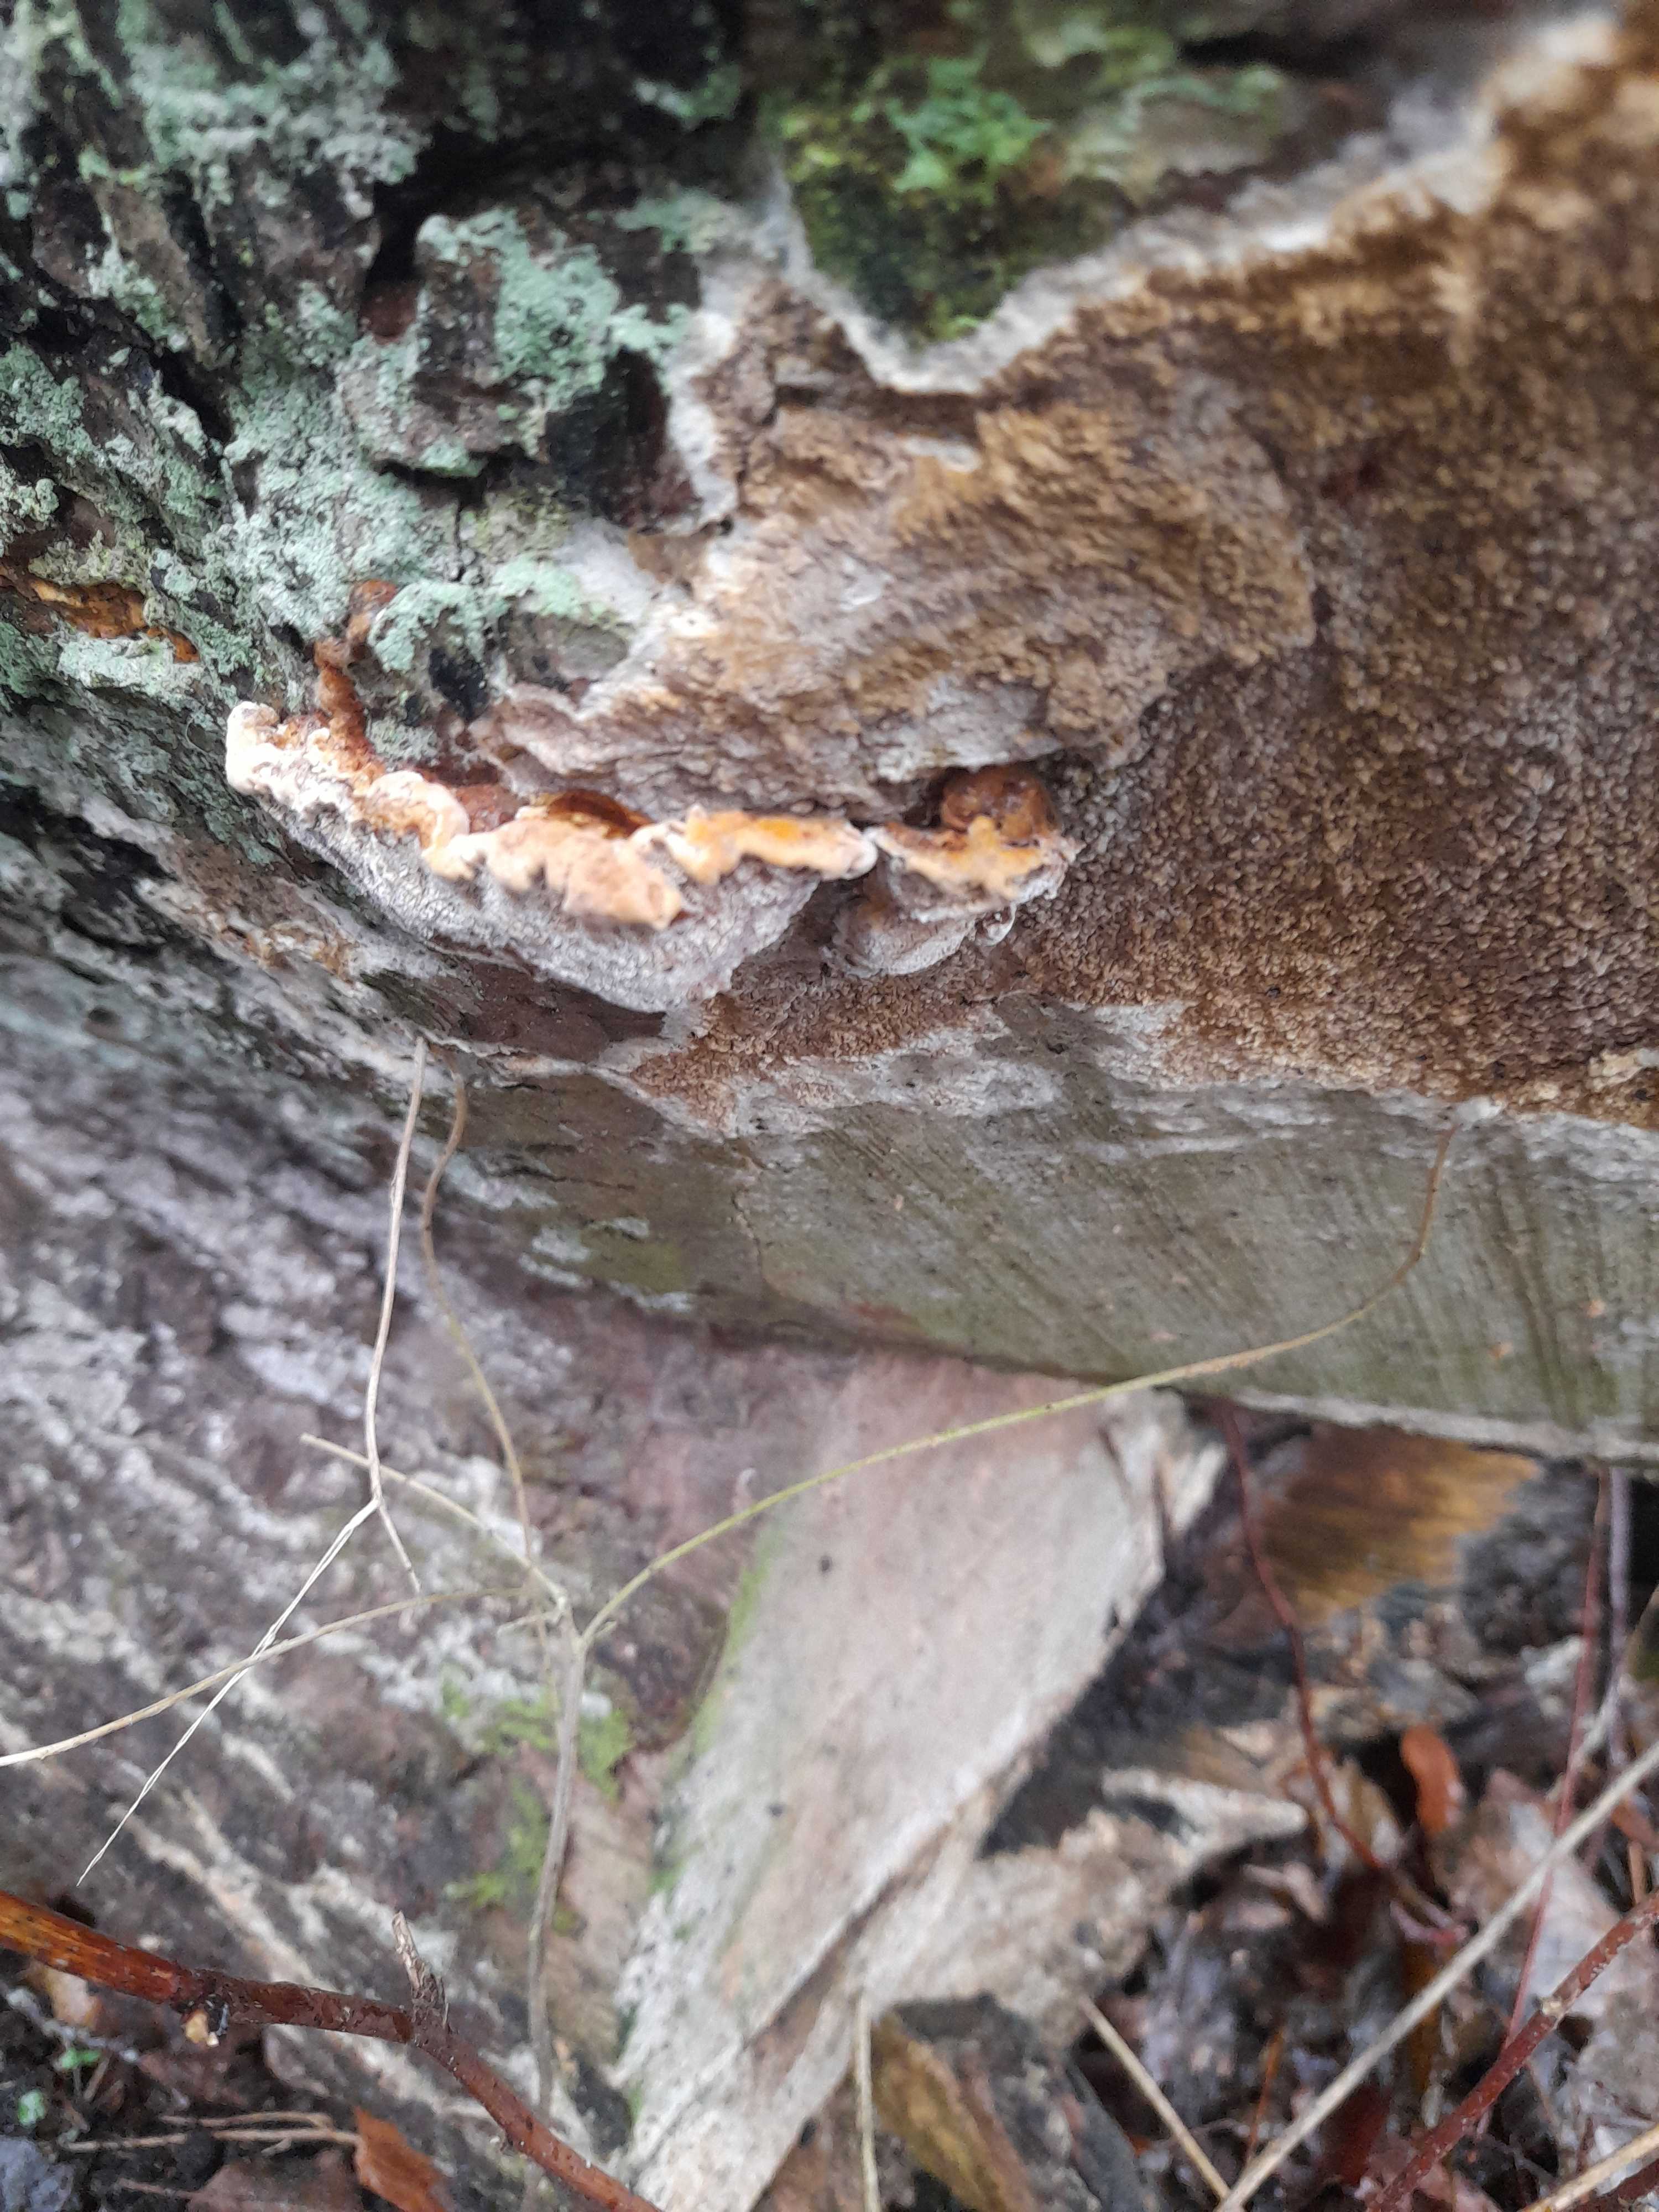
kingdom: Fungi
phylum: Basidiomycota
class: Agaricomycetes
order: Boletales
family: Coniophoraceae
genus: Coniophora
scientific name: Coniophora puteana
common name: gul tømmersvamp
